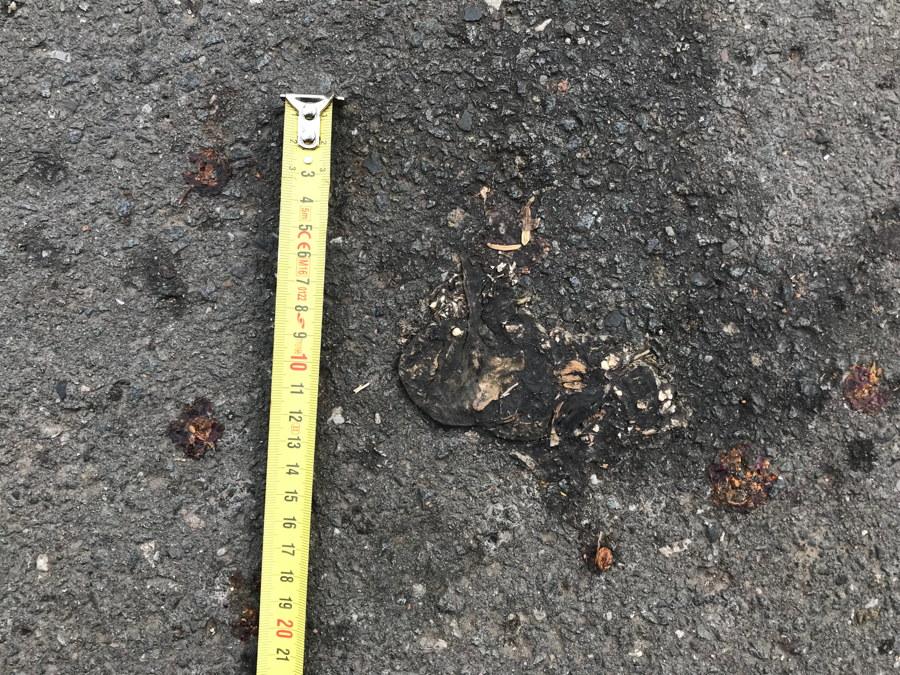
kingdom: Animalia
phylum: Chordata
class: Amphibia
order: Anura
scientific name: Anura
